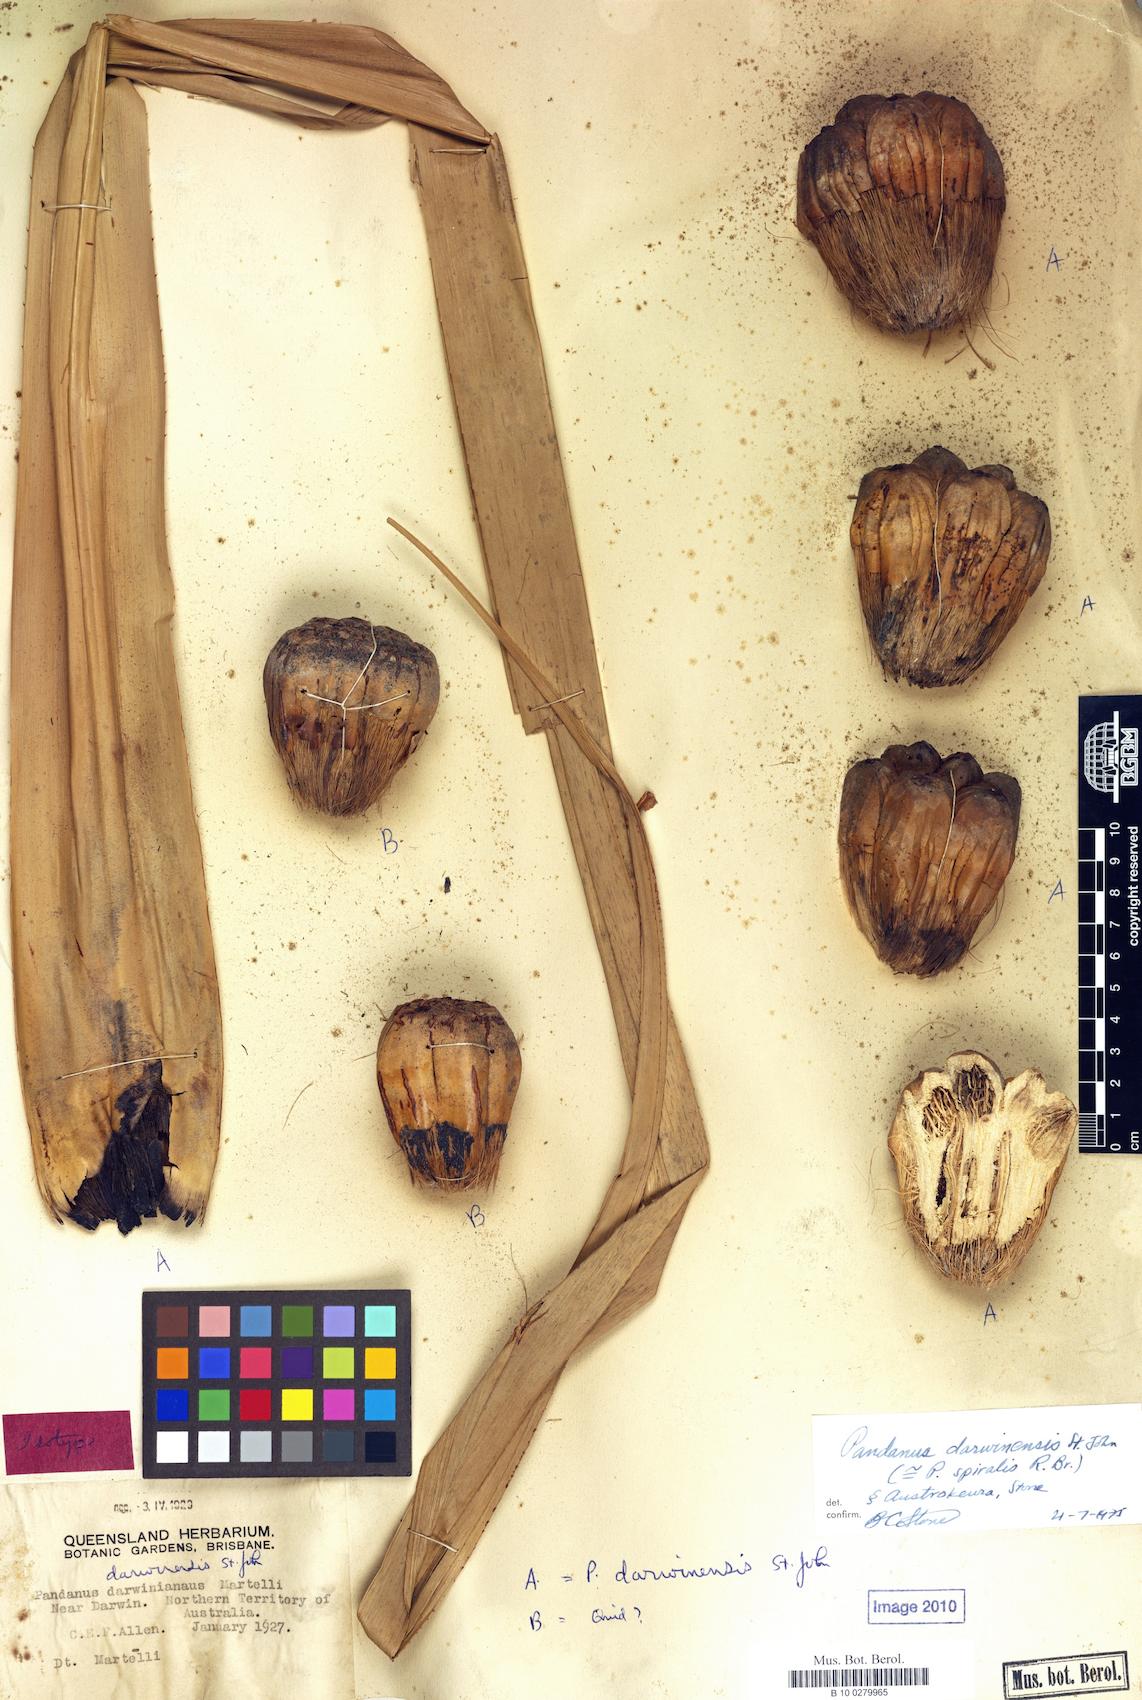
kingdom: Plantae
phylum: Tracheophyta
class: Liliopsida
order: Pandanales
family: Pandanaceae
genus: Pandanus
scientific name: Pandanus darwinensis
